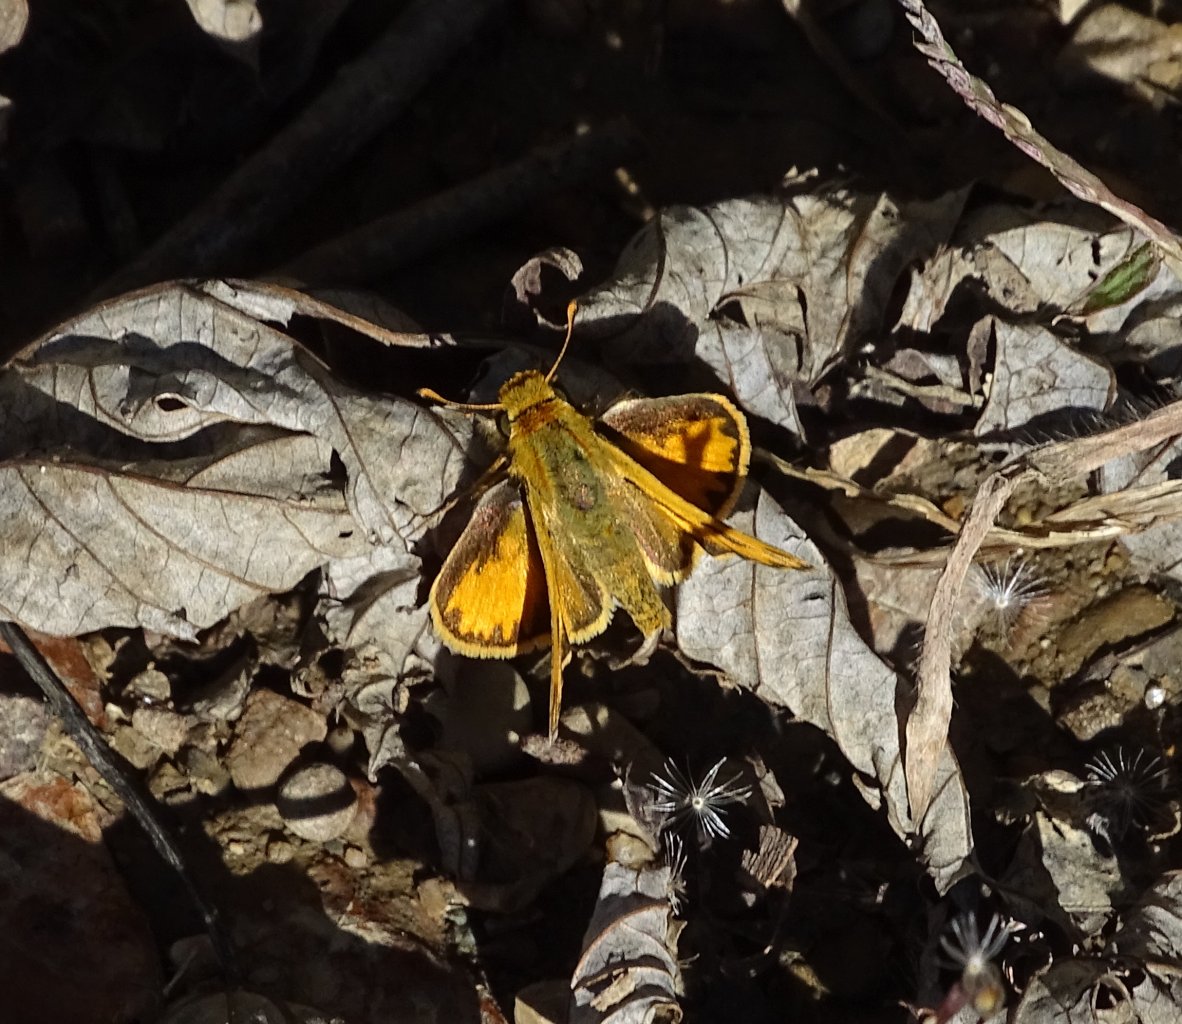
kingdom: Animalia
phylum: Arthropoda
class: Insecta
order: Lepidoptera
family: Hesperiidae
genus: Hylephila
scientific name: Hylephila phyleus
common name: Fiery Skipper
